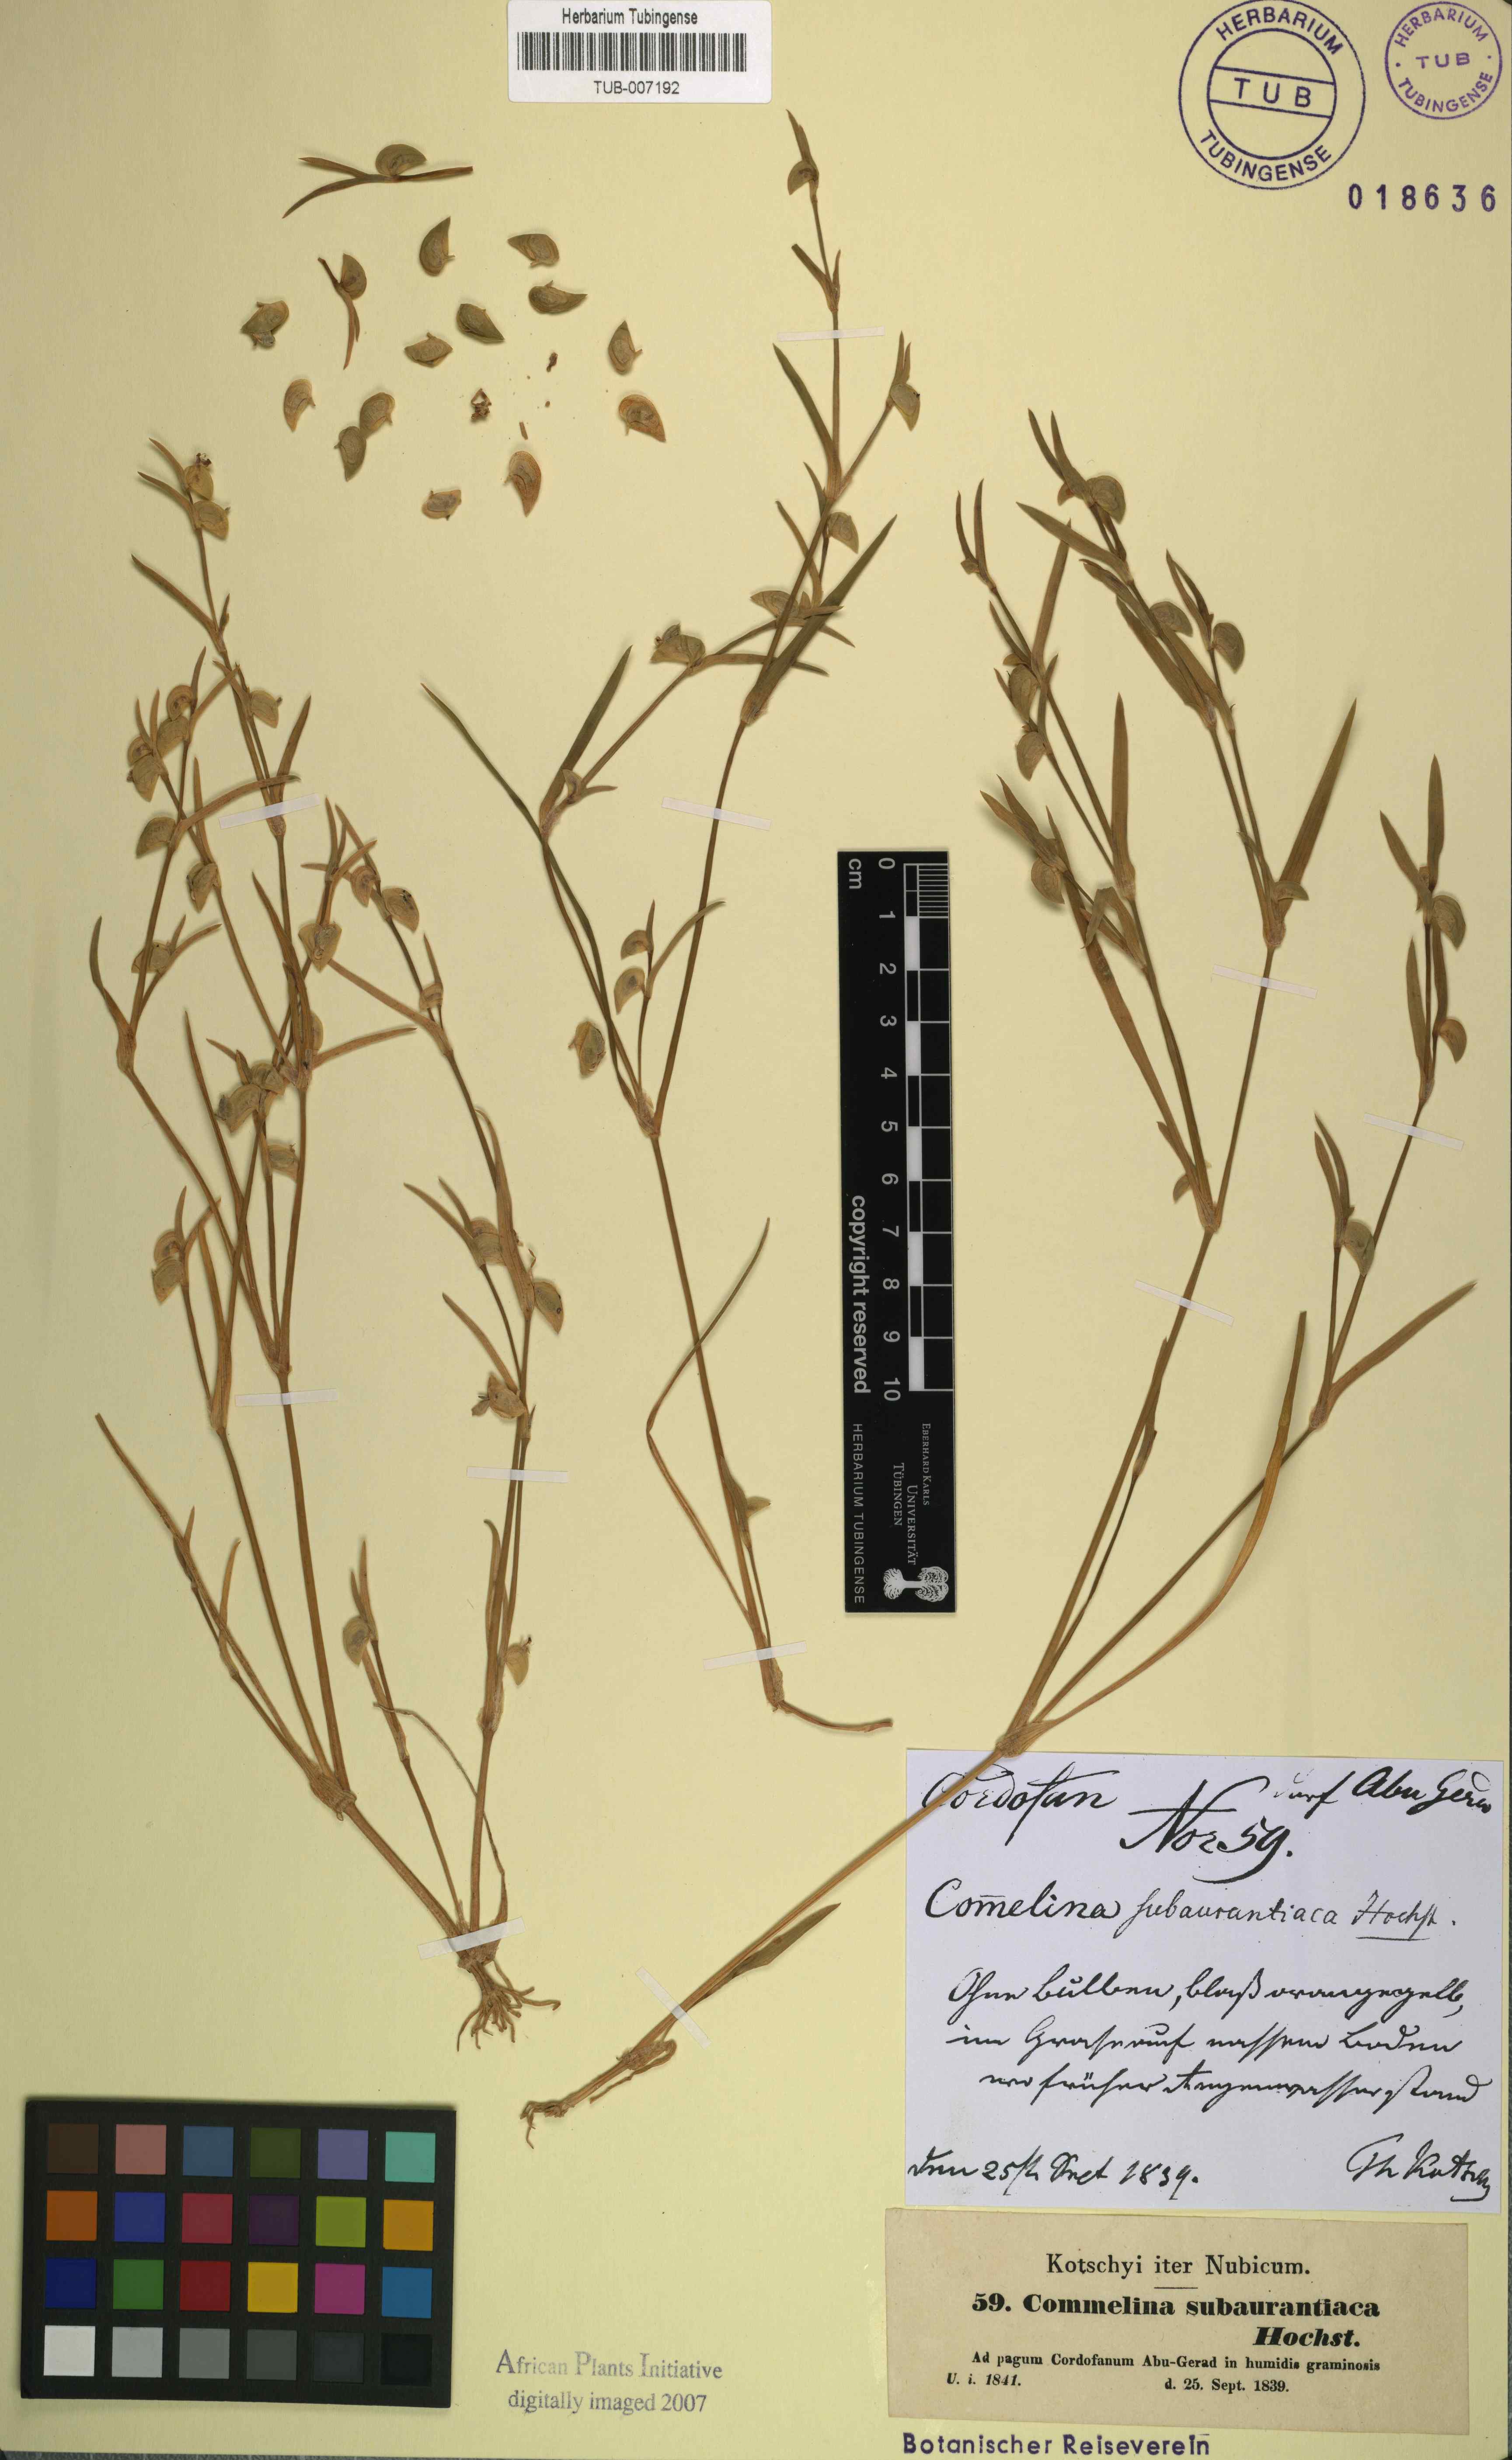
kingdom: Plantae
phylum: Tracheophyta
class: Liliopsida
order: Commelinales
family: Commelinaceae
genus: Commelina
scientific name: Commelina subulata
